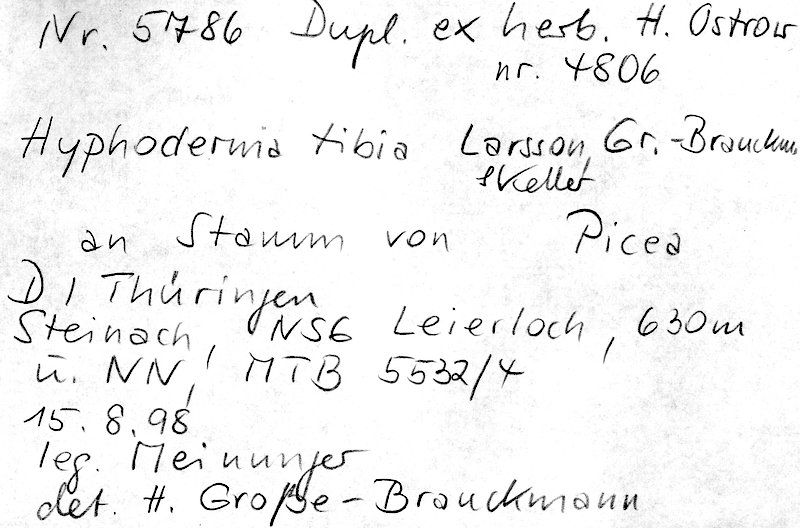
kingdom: Plantae
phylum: Tracheophyta
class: Pinopsida
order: Pinales
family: Pinaceae
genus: Picea
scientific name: Picea
